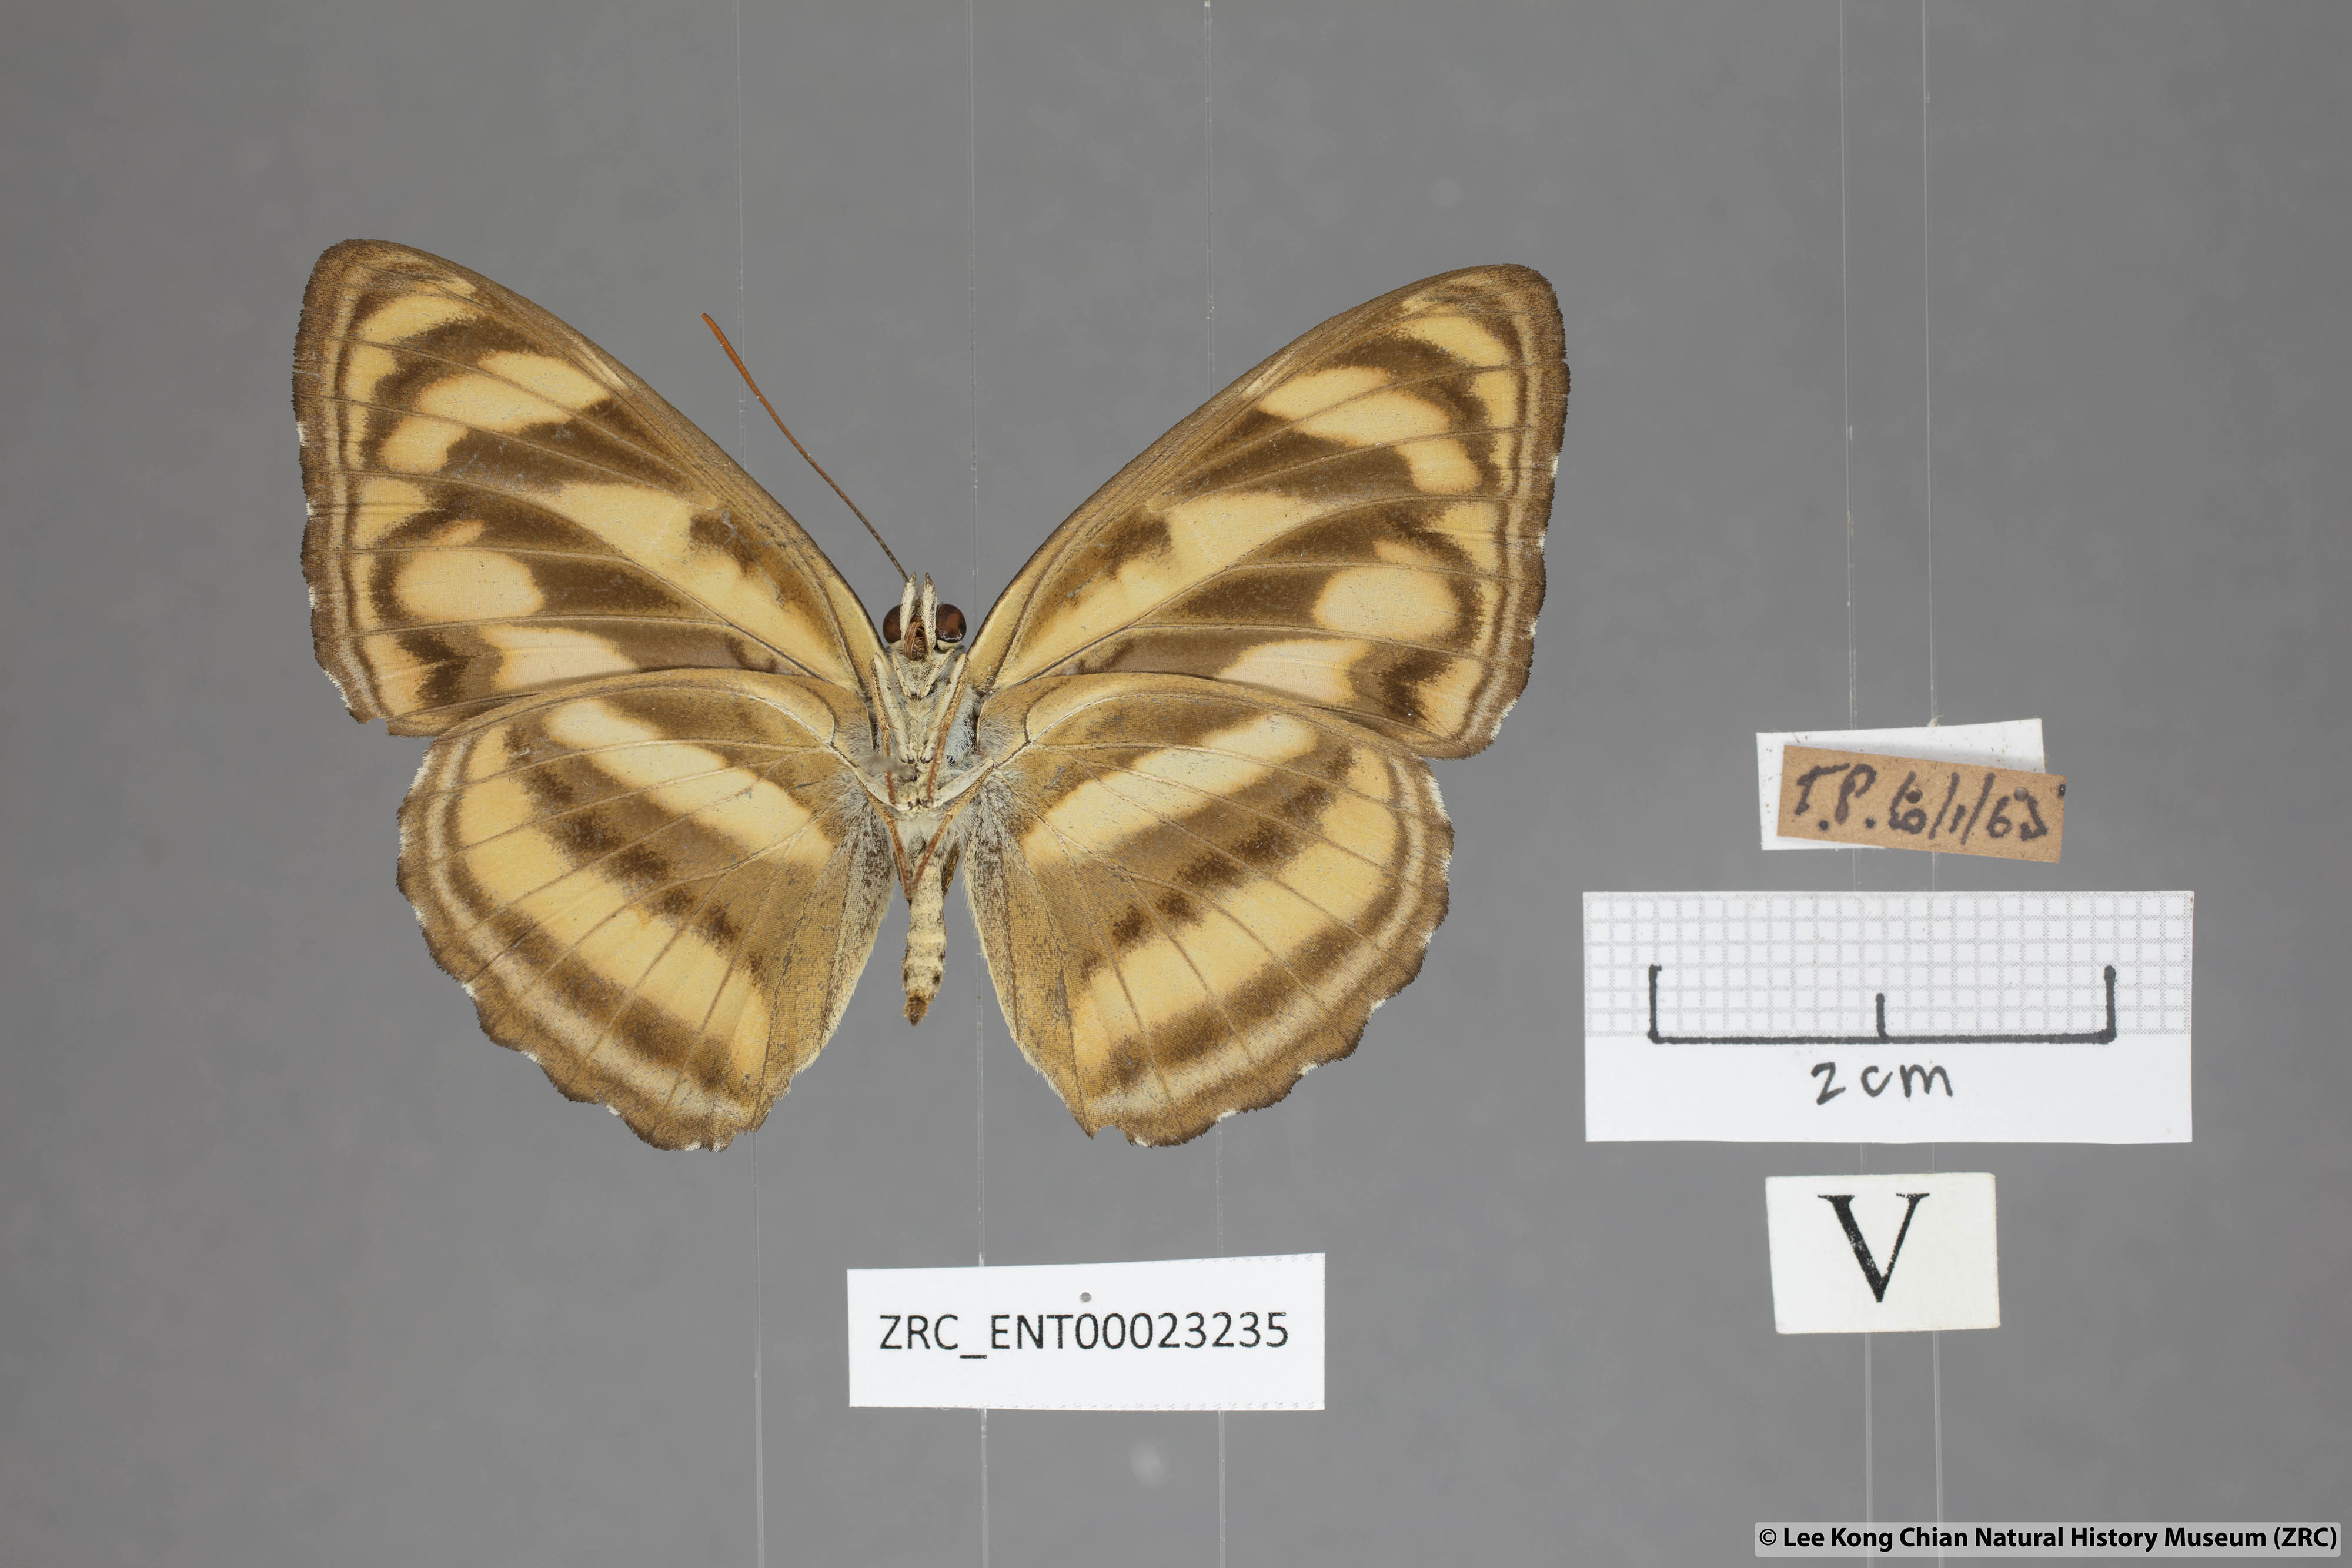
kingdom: Animalia
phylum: Arthropoda
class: Insecta
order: Lepidoptera
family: Nymphalidae
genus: Parathyma
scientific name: Parathyma nefte
